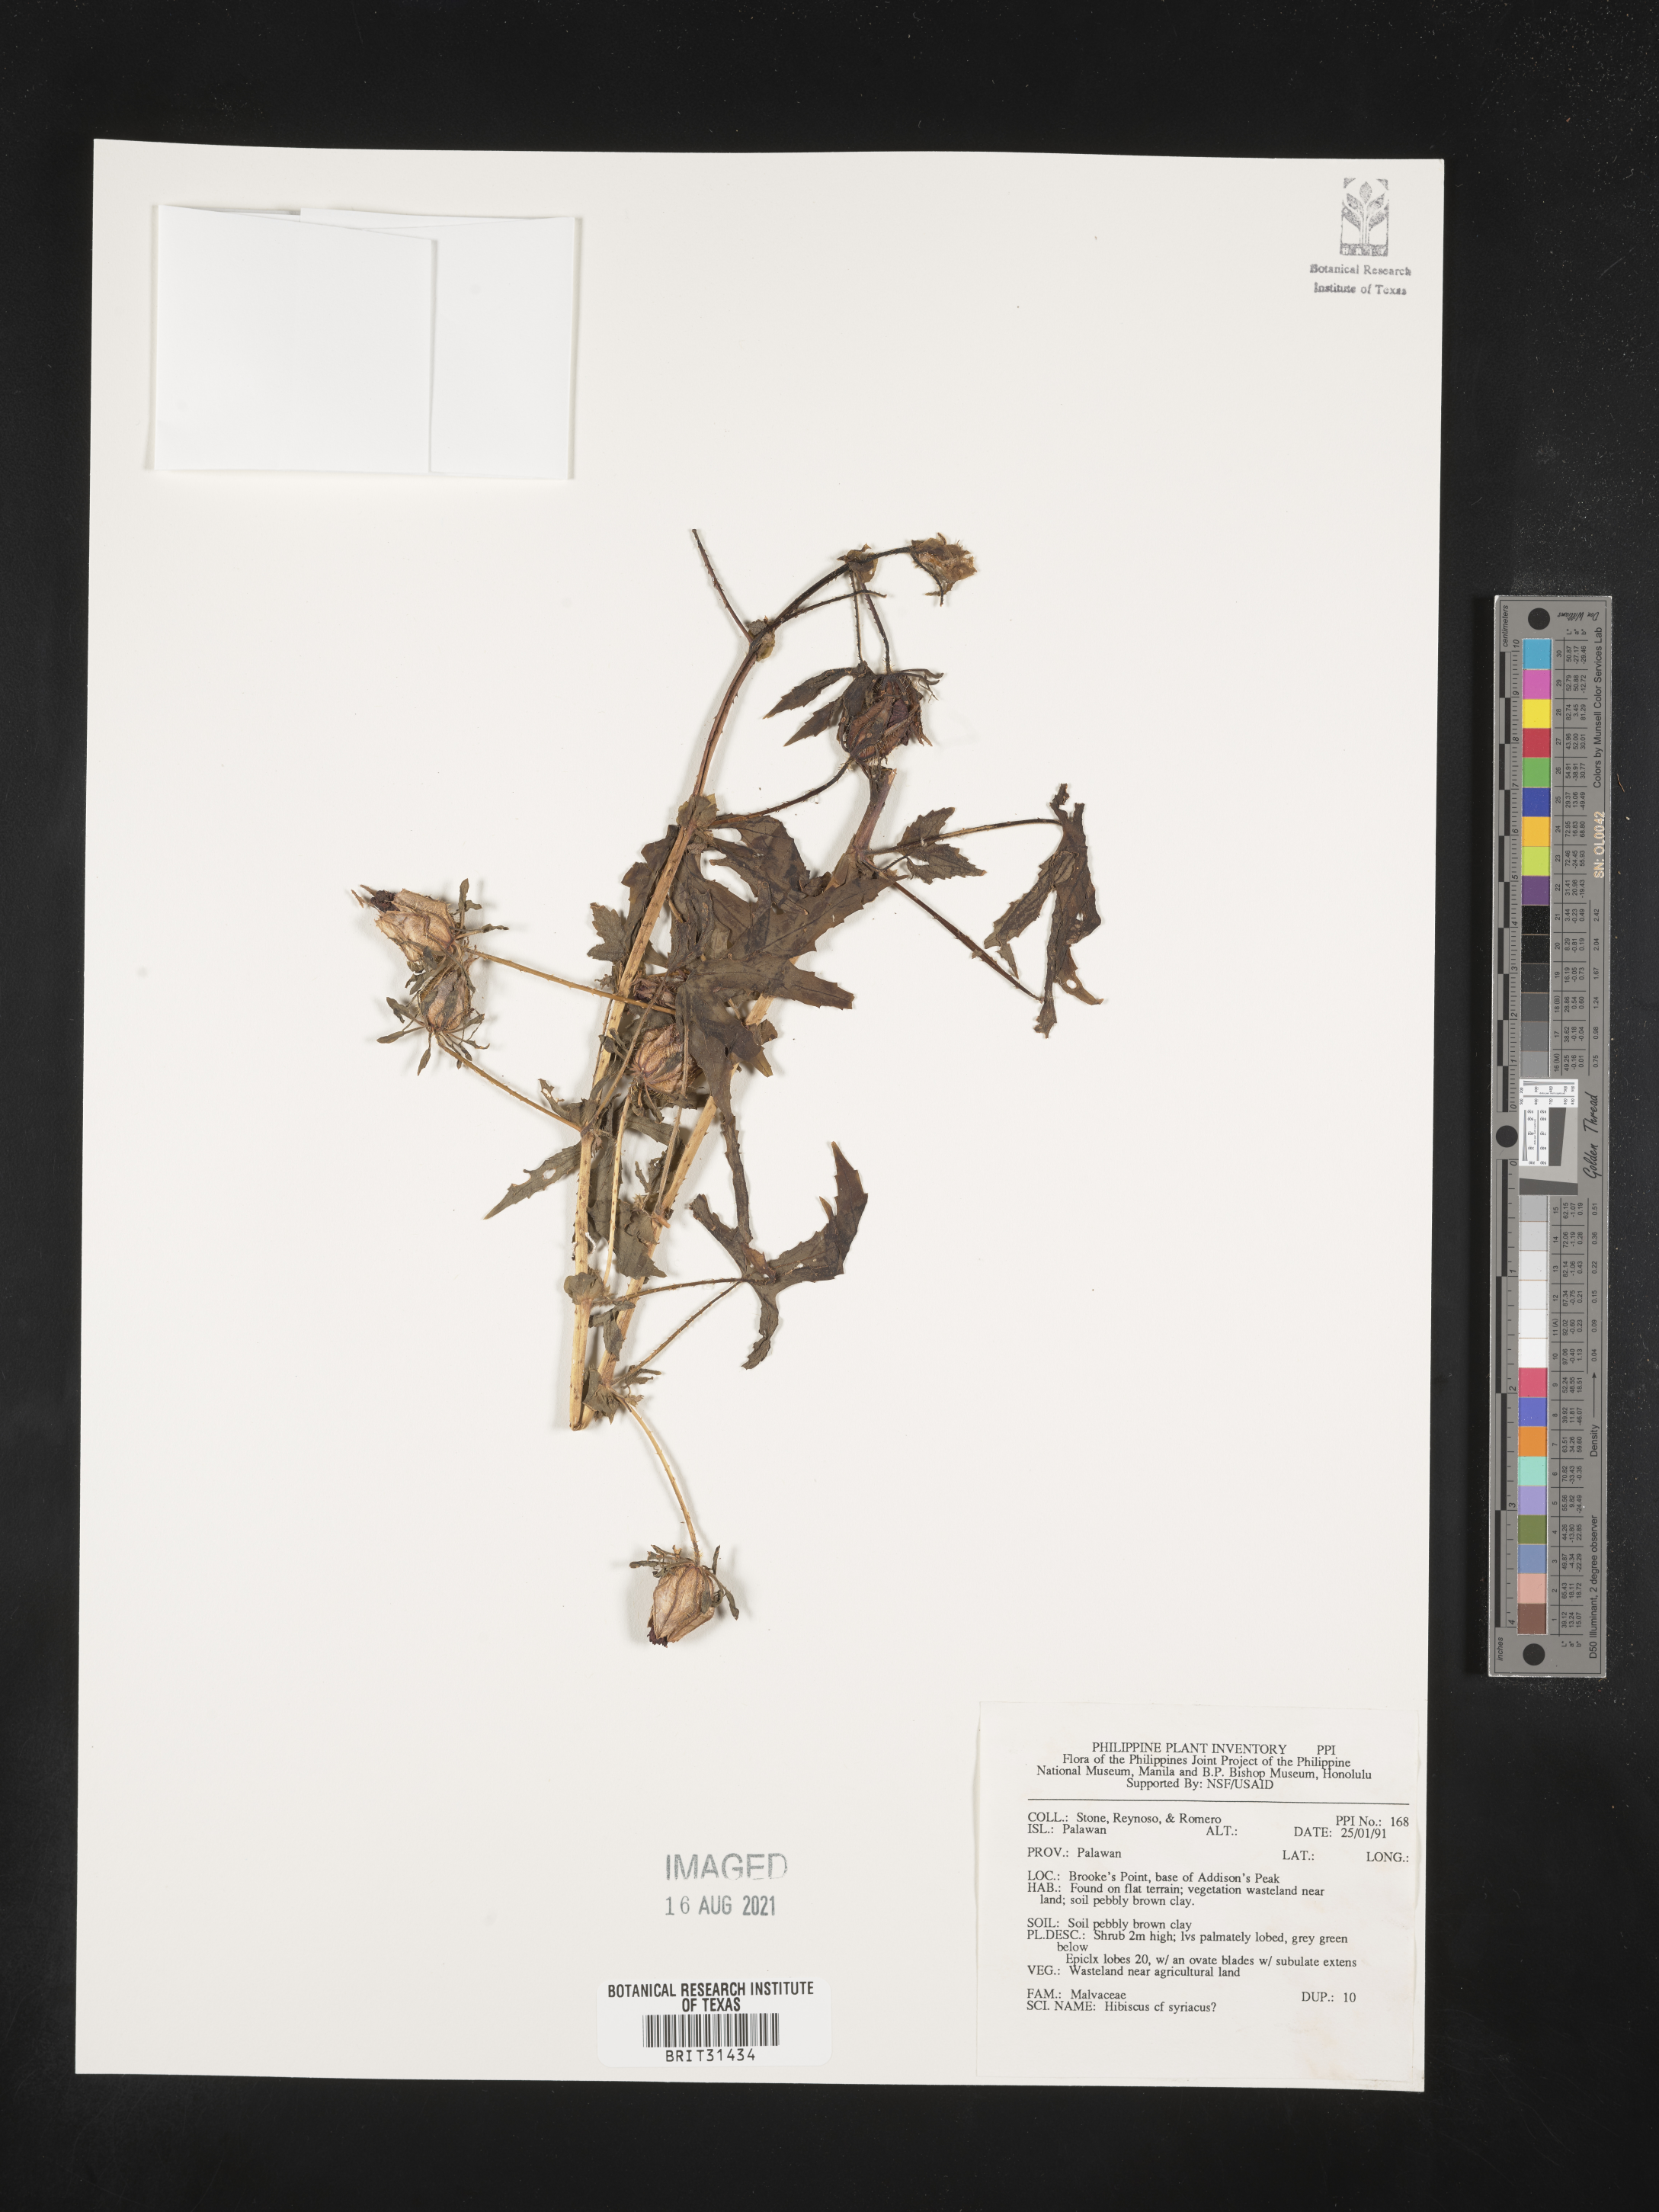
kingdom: Plantae
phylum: Tracheophyta
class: Magnoliopsida
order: Malvales
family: Malvaceae
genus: Hibiscus
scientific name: Hibiscus syriacus
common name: Syrian ketmia
